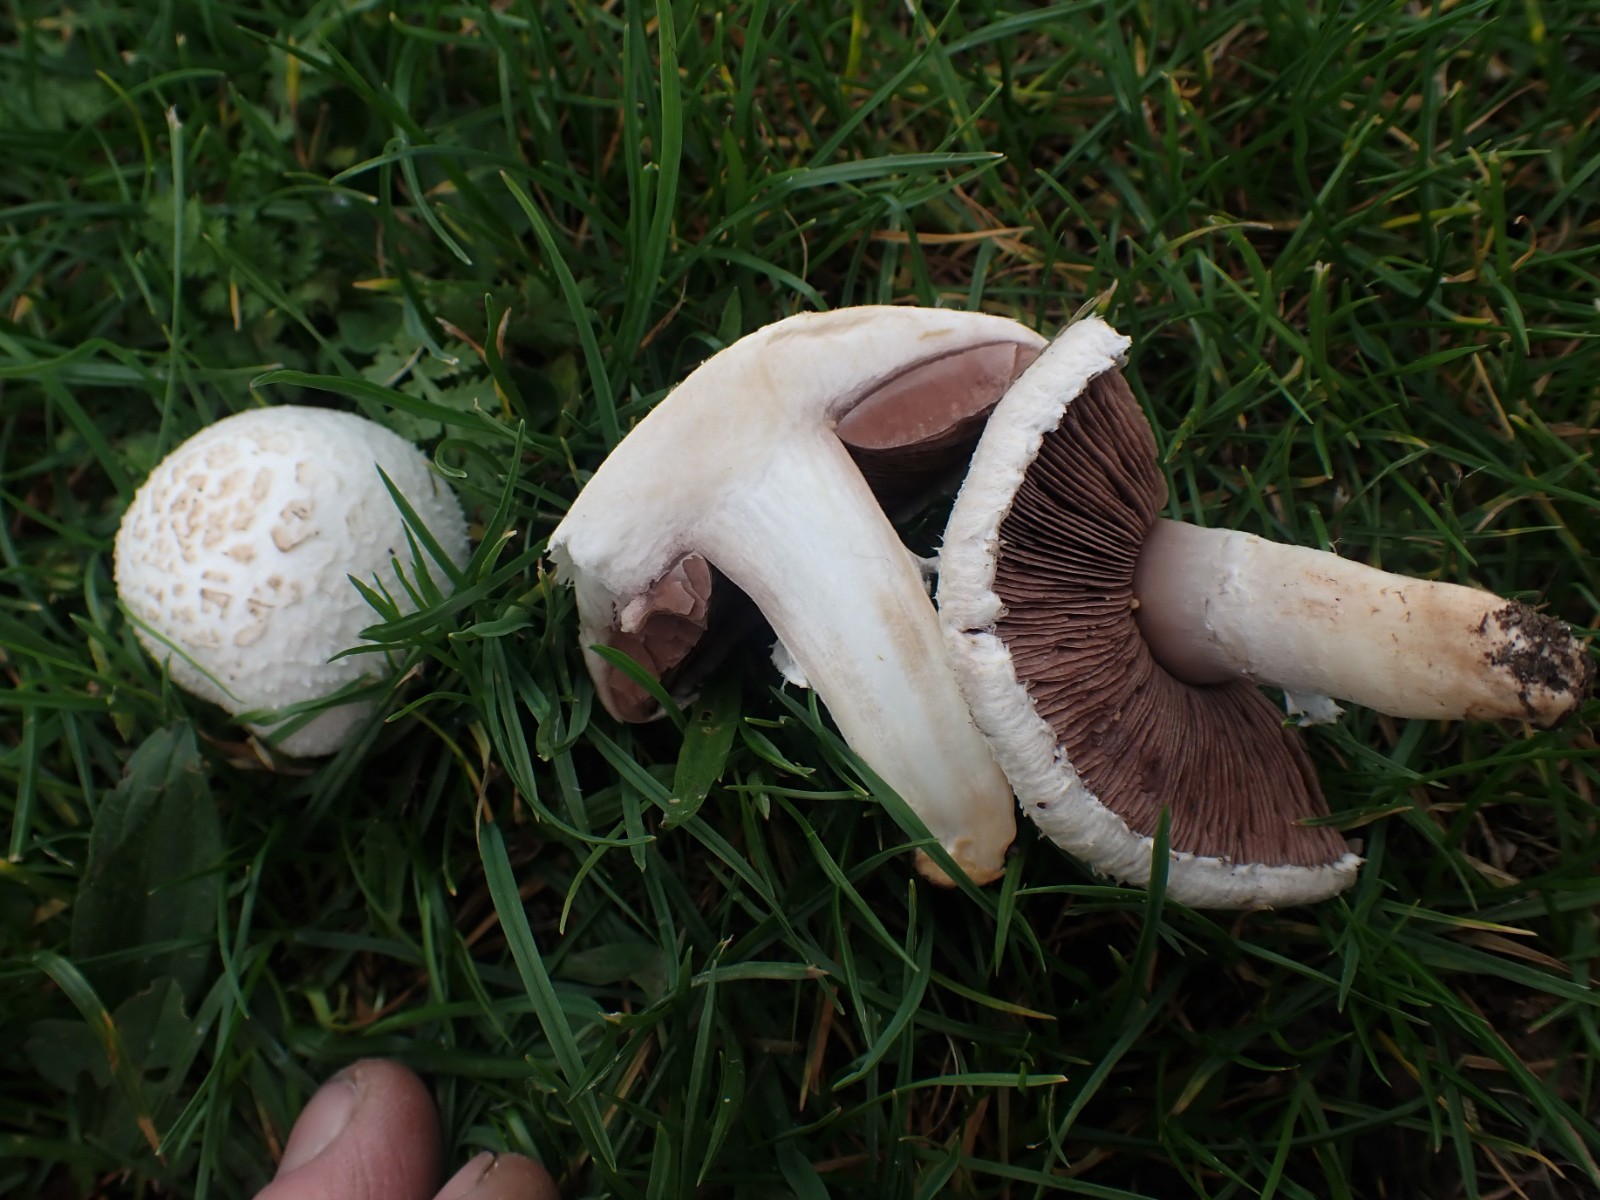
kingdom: Fungi
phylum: Basidiomycota
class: Agaricomycetes
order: Agaricales
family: Agaricaceae
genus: Agaricus
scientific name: Agaricus campestris
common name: mark-champignon
